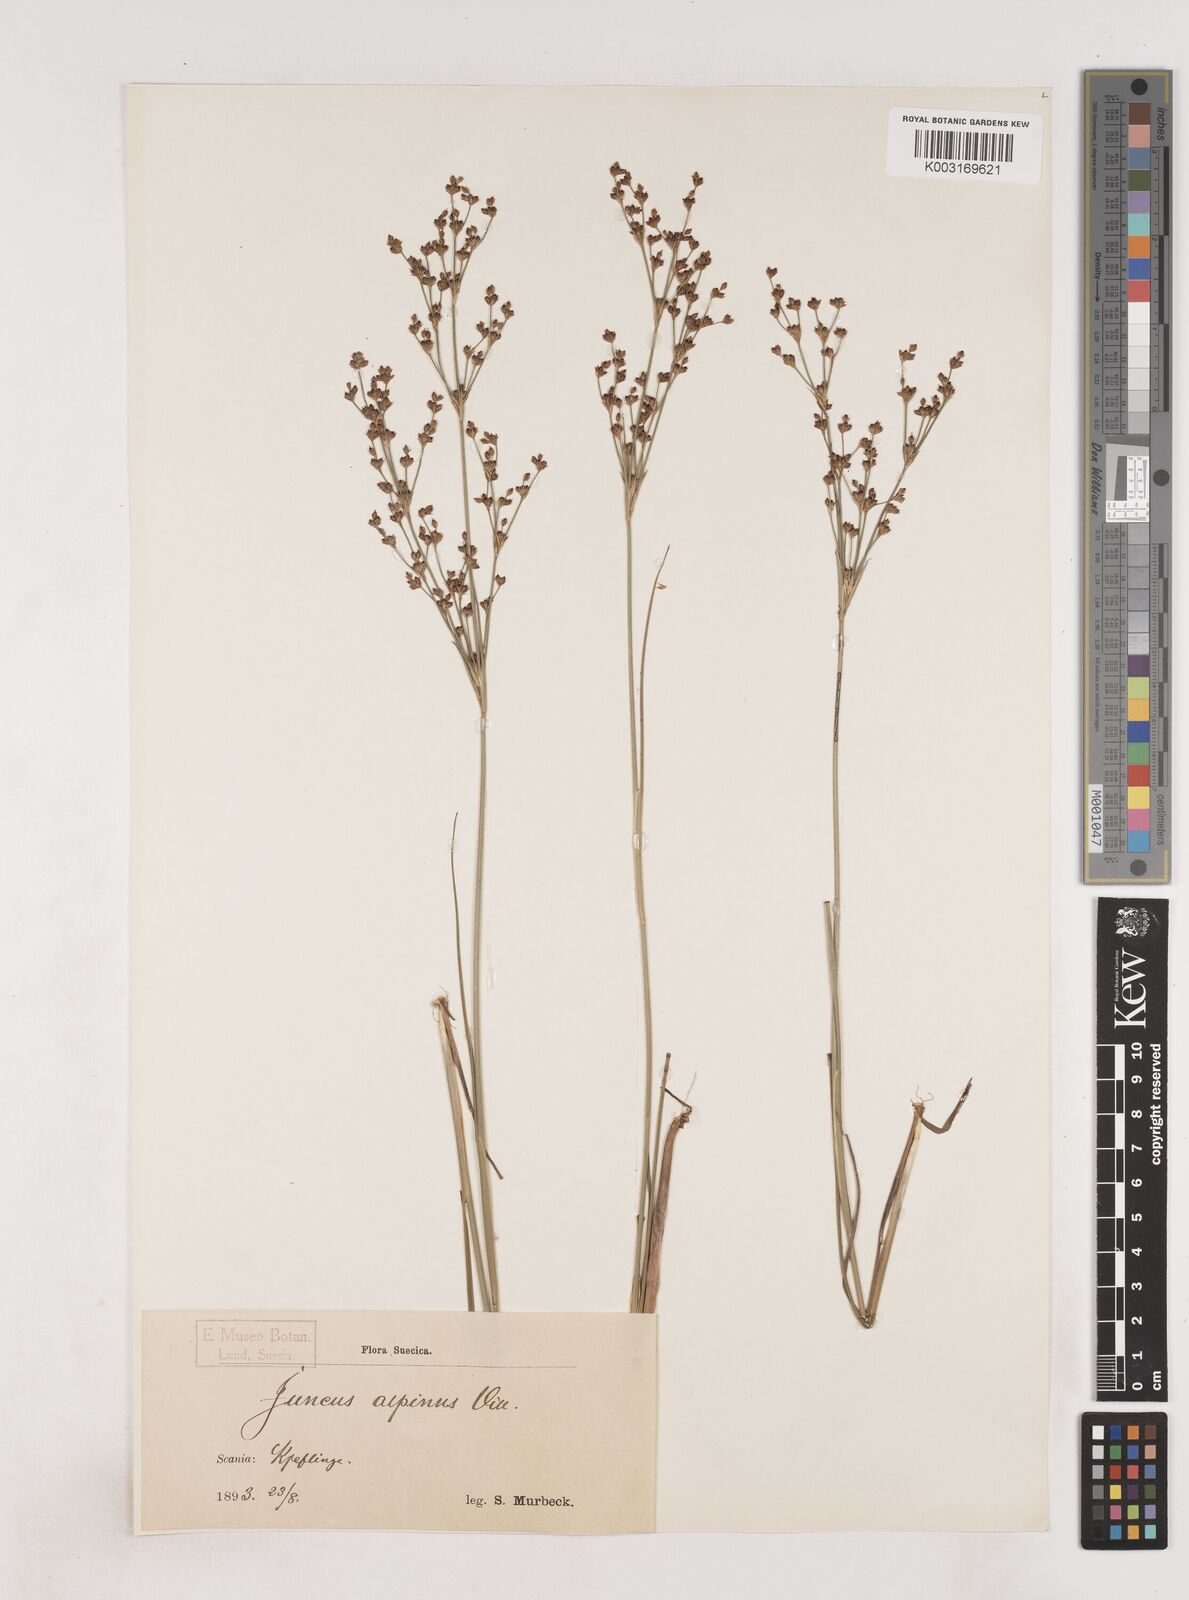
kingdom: Plantae
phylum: Tracheophyta
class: Liliopsida
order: Poales
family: Juncaceae
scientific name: Juncaceae
